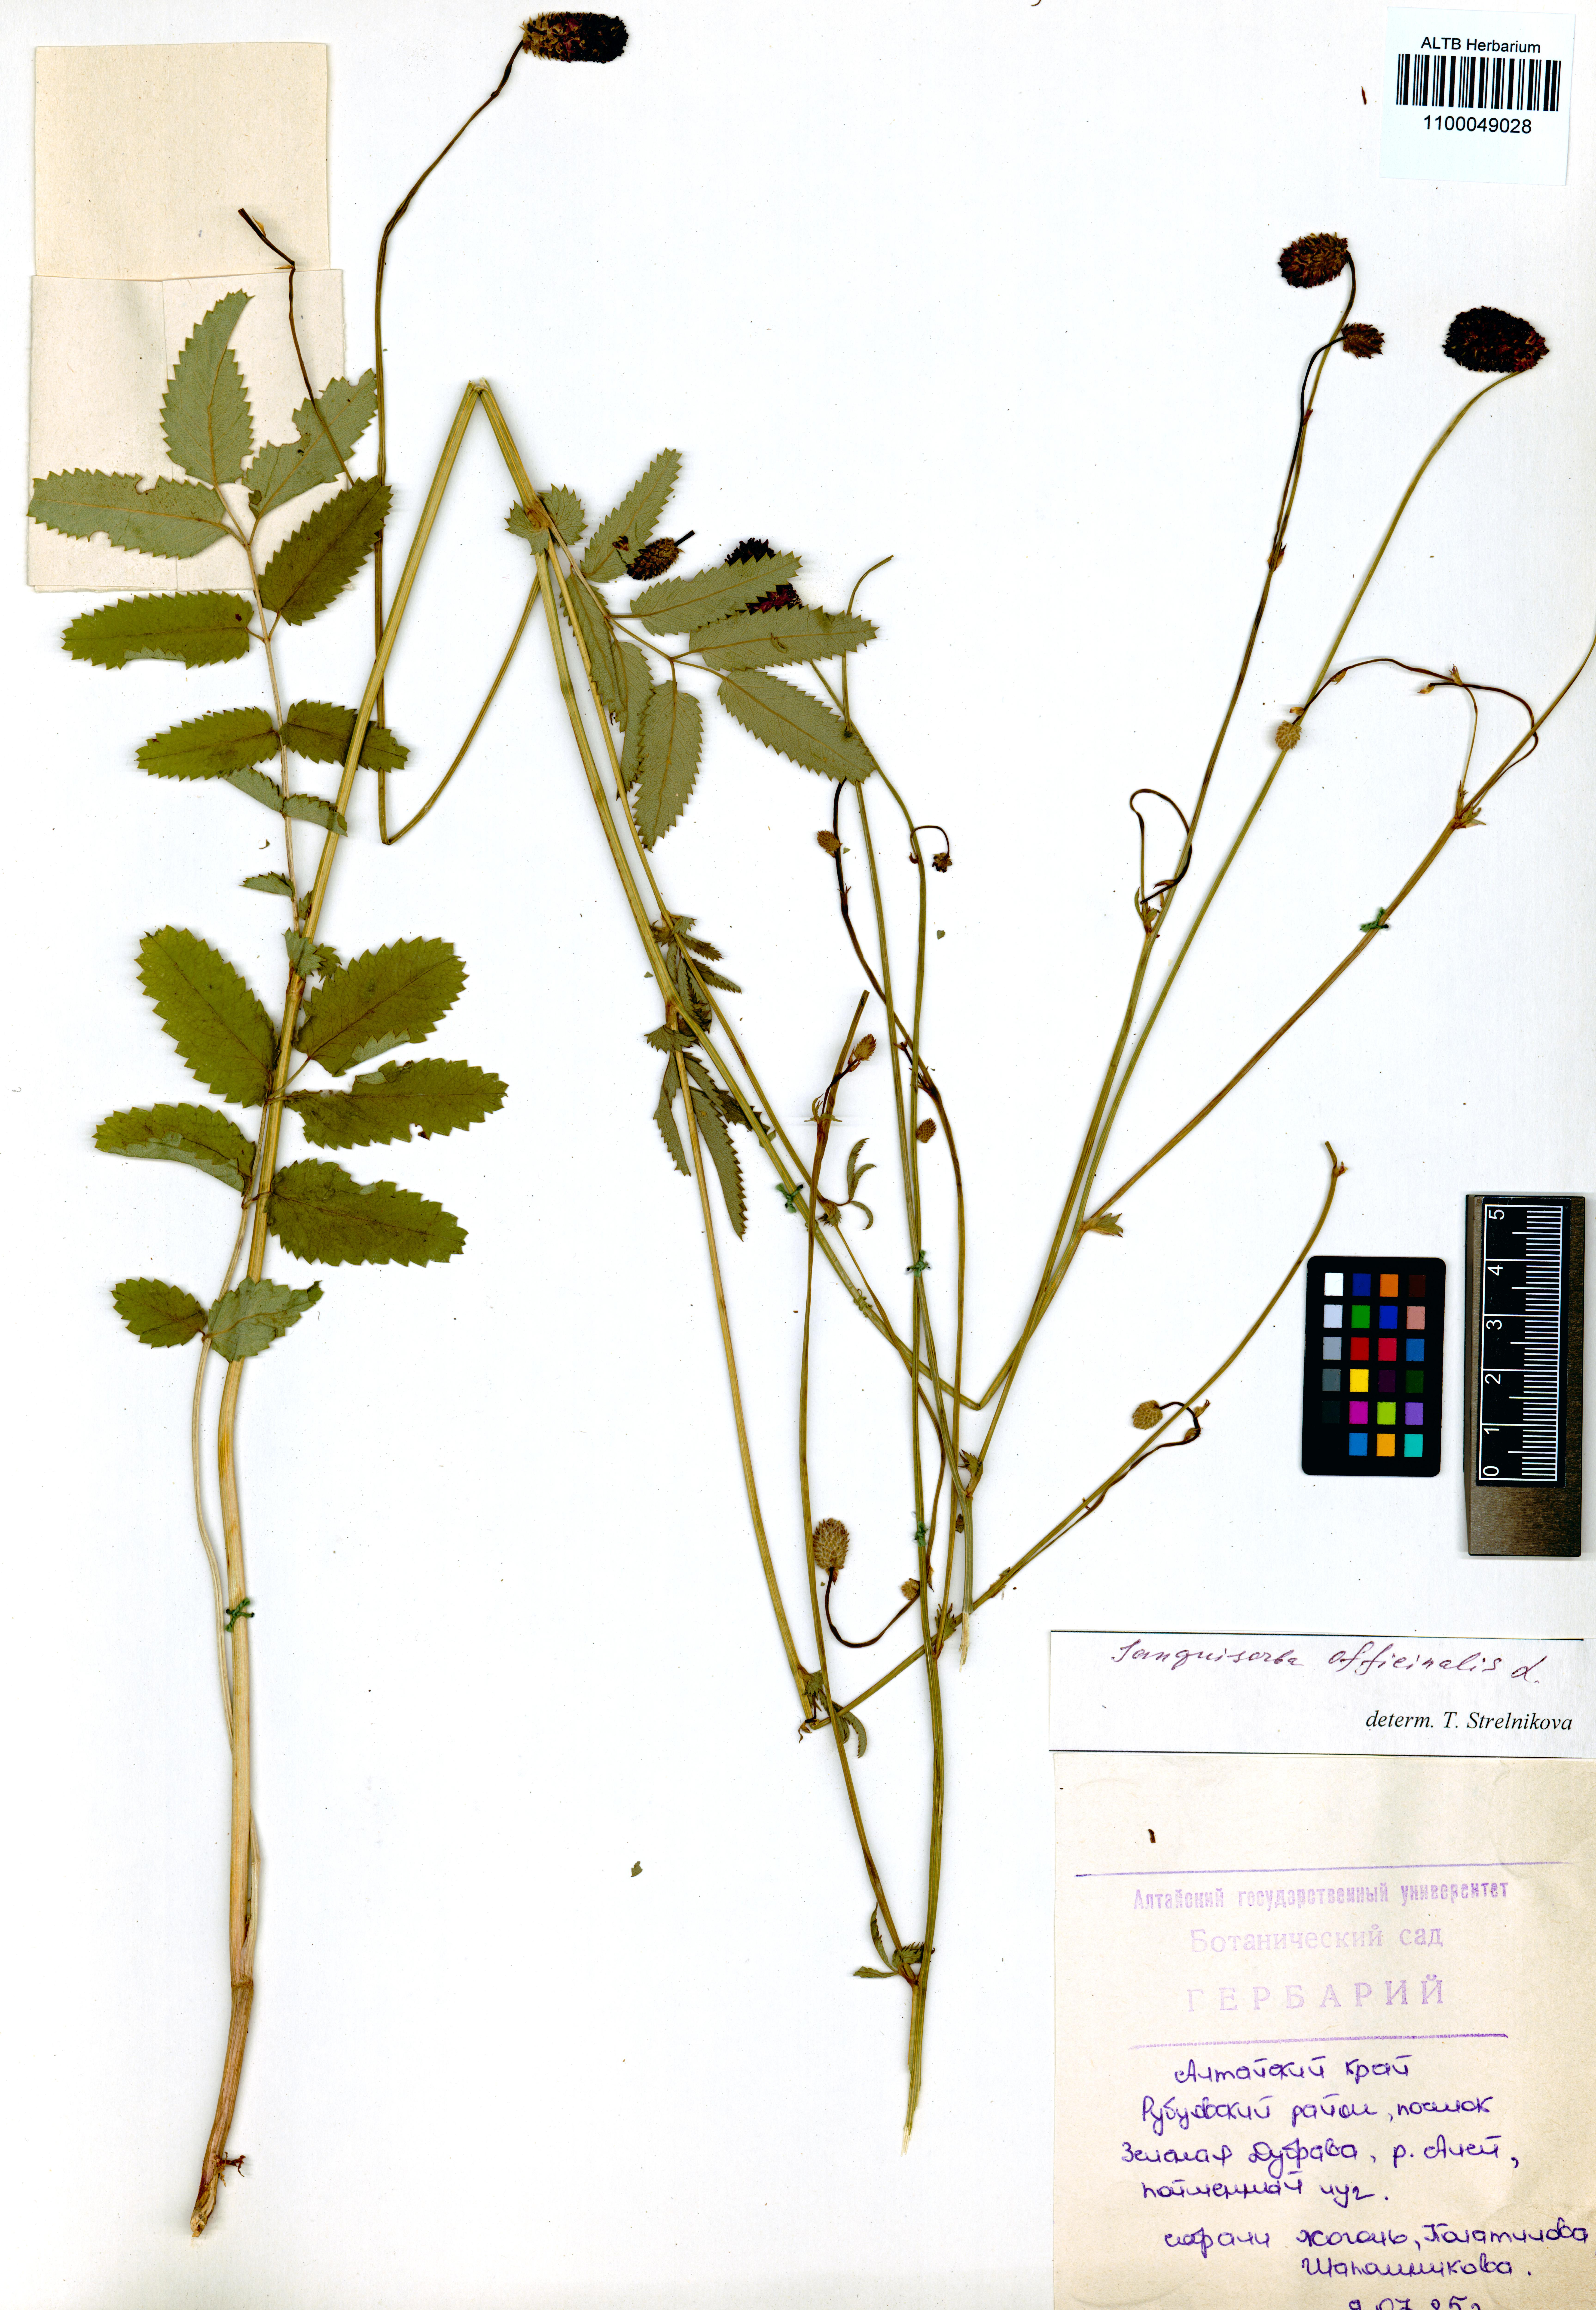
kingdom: Plantae
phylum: Tracheophyta
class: Magnoliopsida
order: Rosales
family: Rosaceae
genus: Sanguisorba
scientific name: Sanguisorba officinalis
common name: Great burnet
